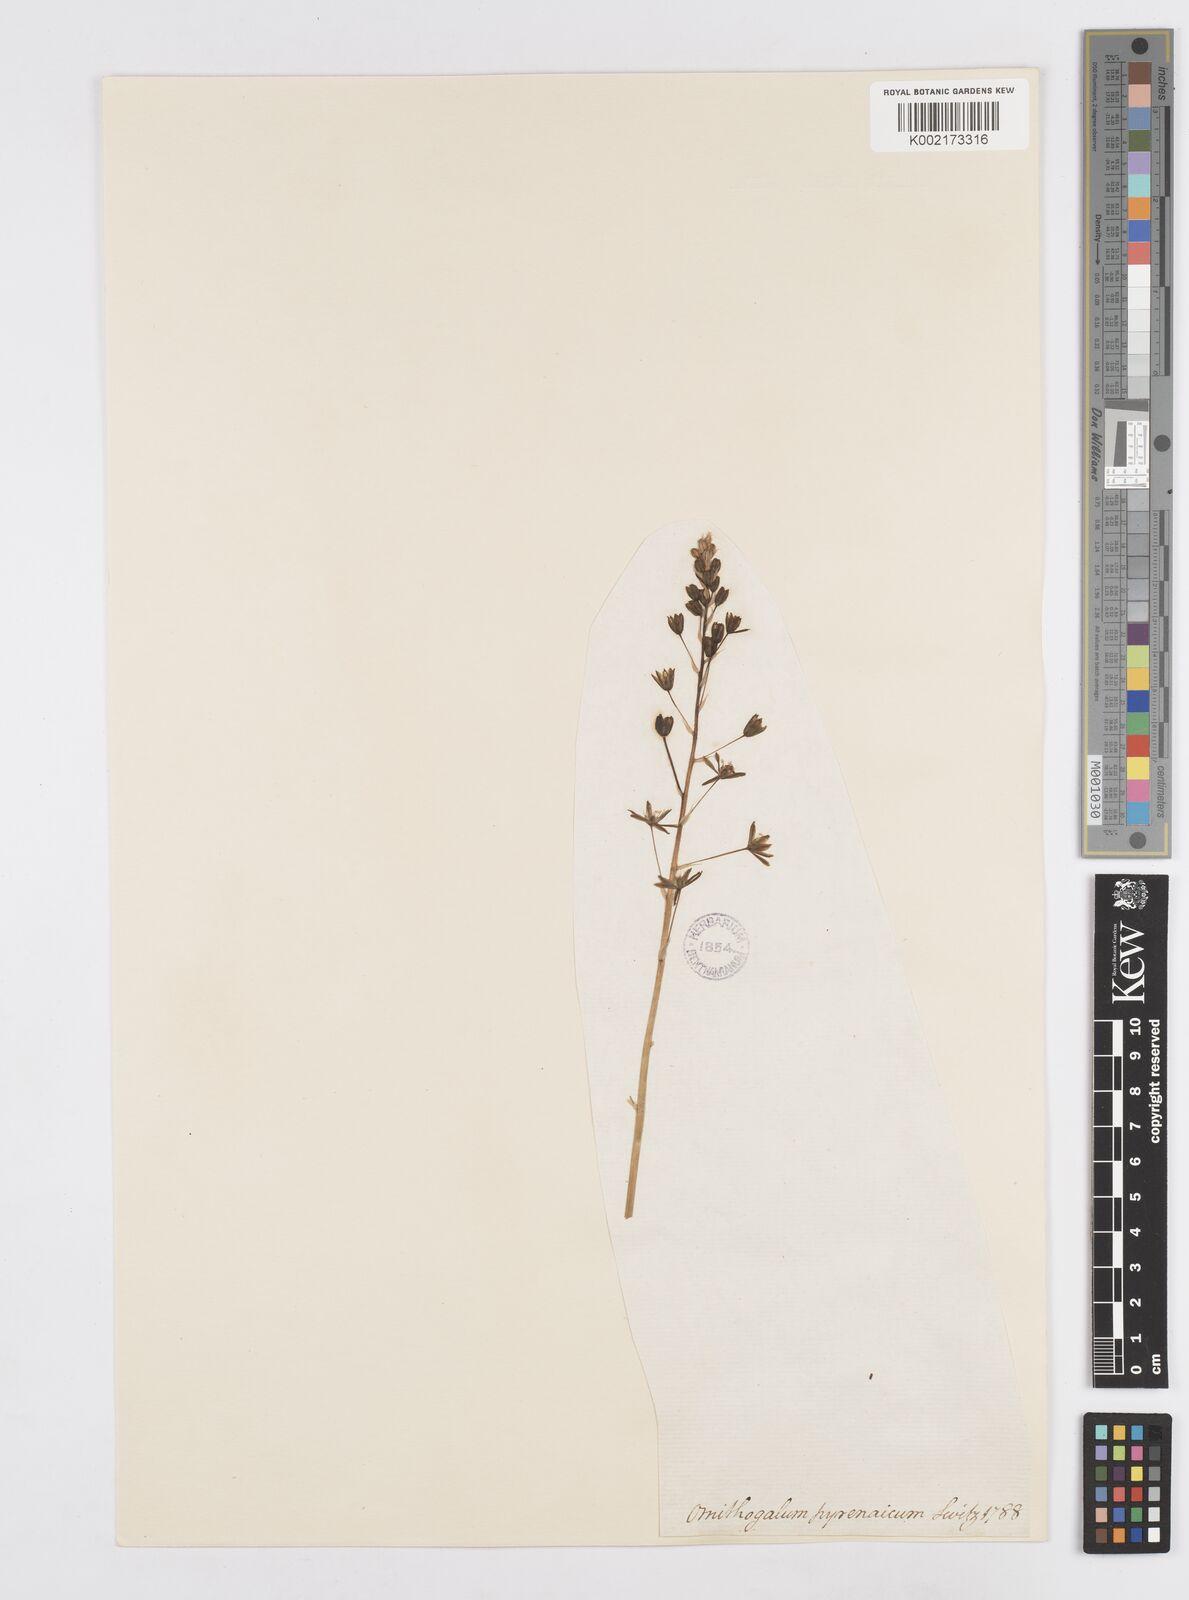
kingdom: Plantae
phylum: Tracheophyta
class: Liliopsida
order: Asparagales
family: Asparagaceae
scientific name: Asparagaceae
